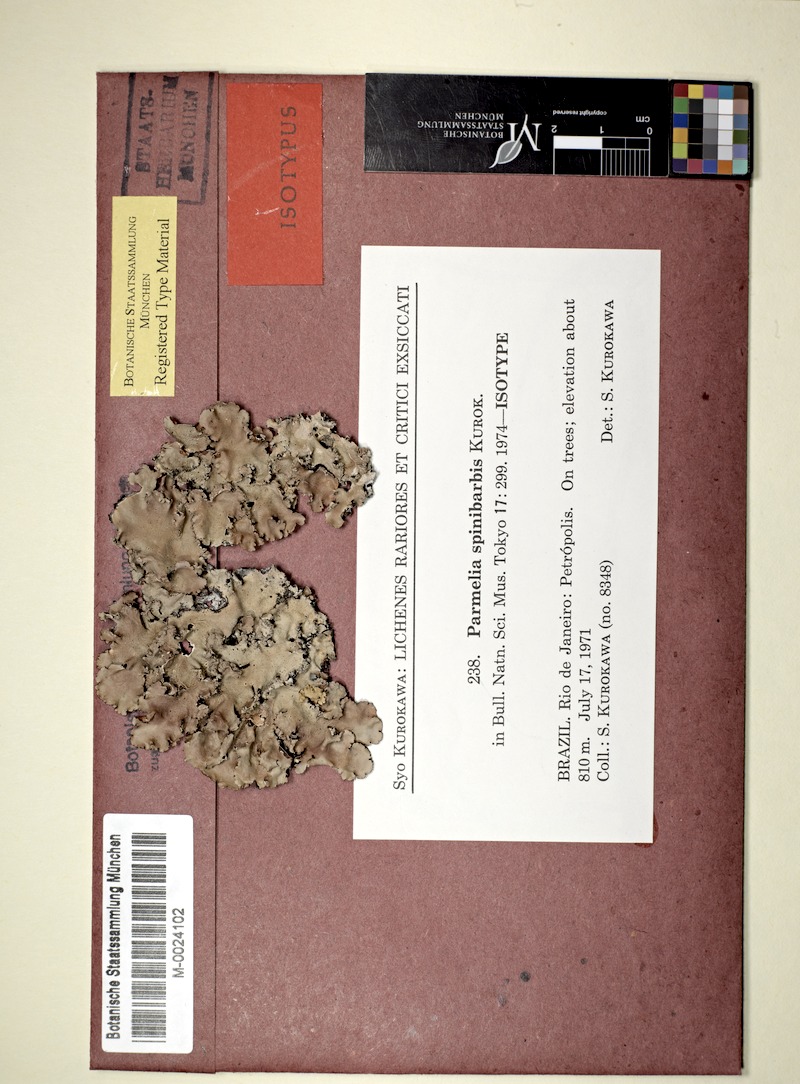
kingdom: Fungi
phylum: Ascomycota
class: Lecanoromycetes
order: Lecanorales
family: Parmeliaceae
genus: Parmotrema
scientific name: Parmotrema spinibarbe
